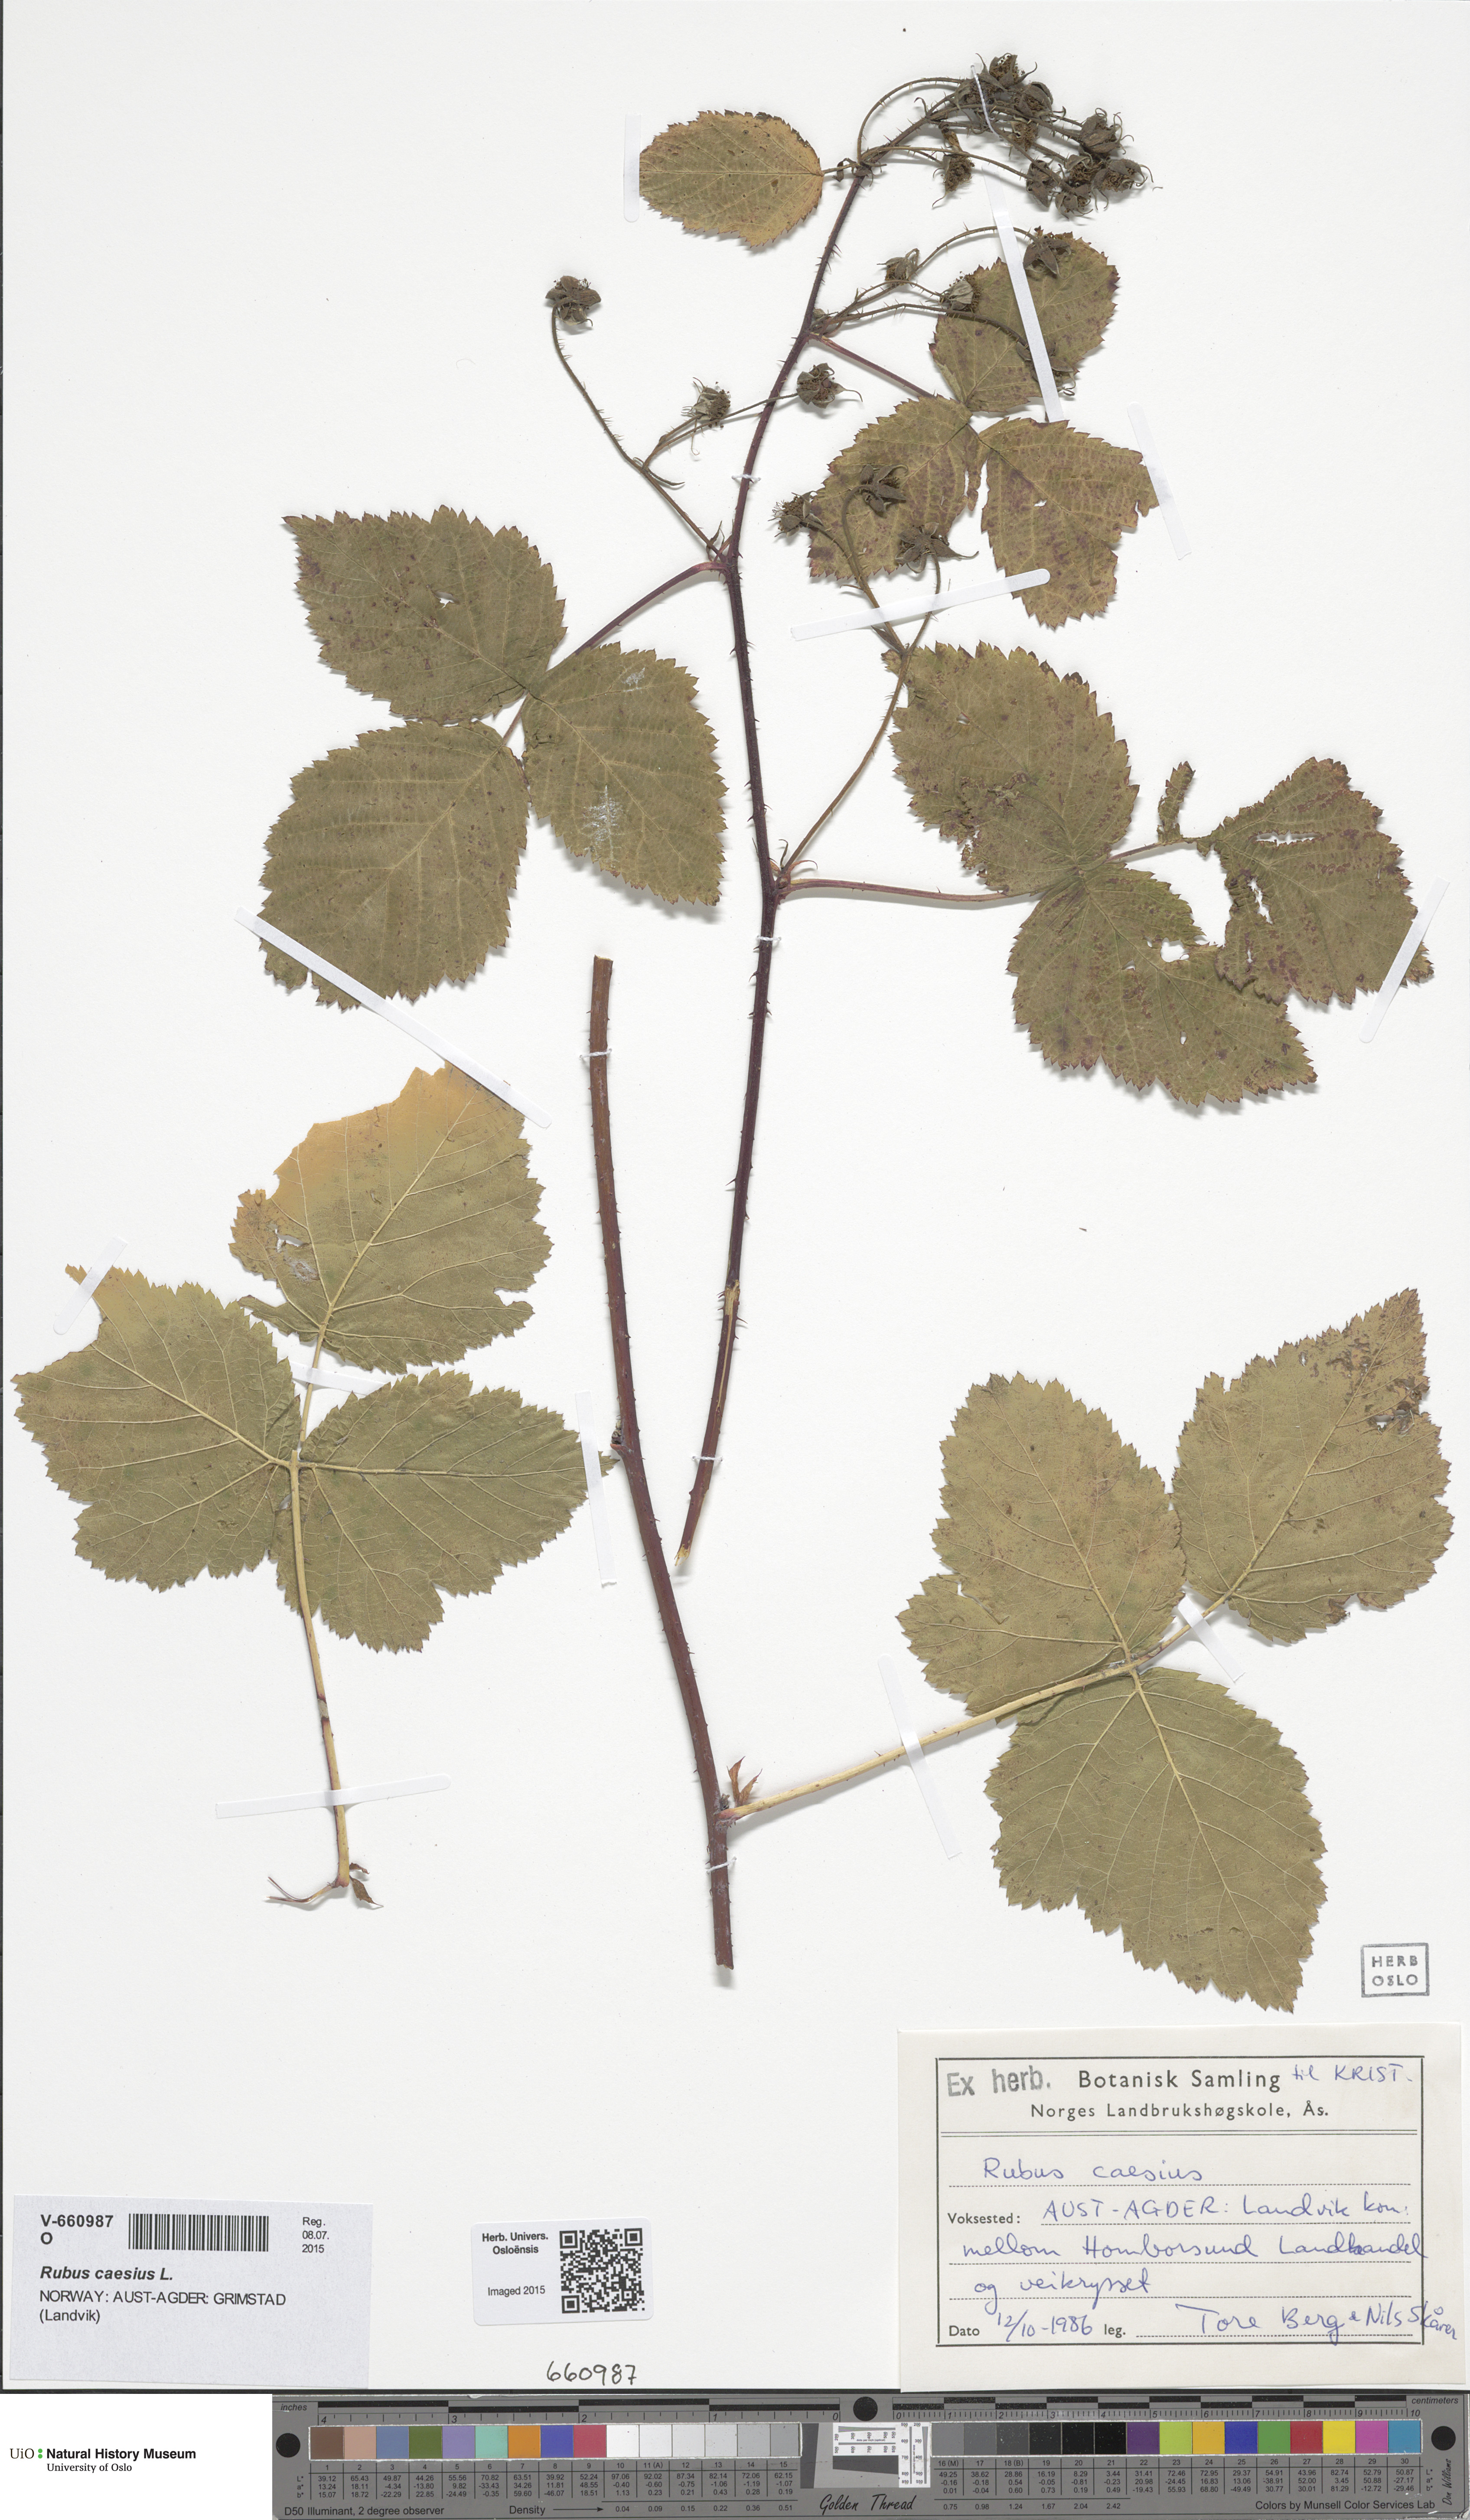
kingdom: Plantae
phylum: Tracheophyta
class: Magnoliopsida
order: Rosales
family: Rosaceae
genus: Rubus
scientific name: Rubus caesius
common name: Dewberry
